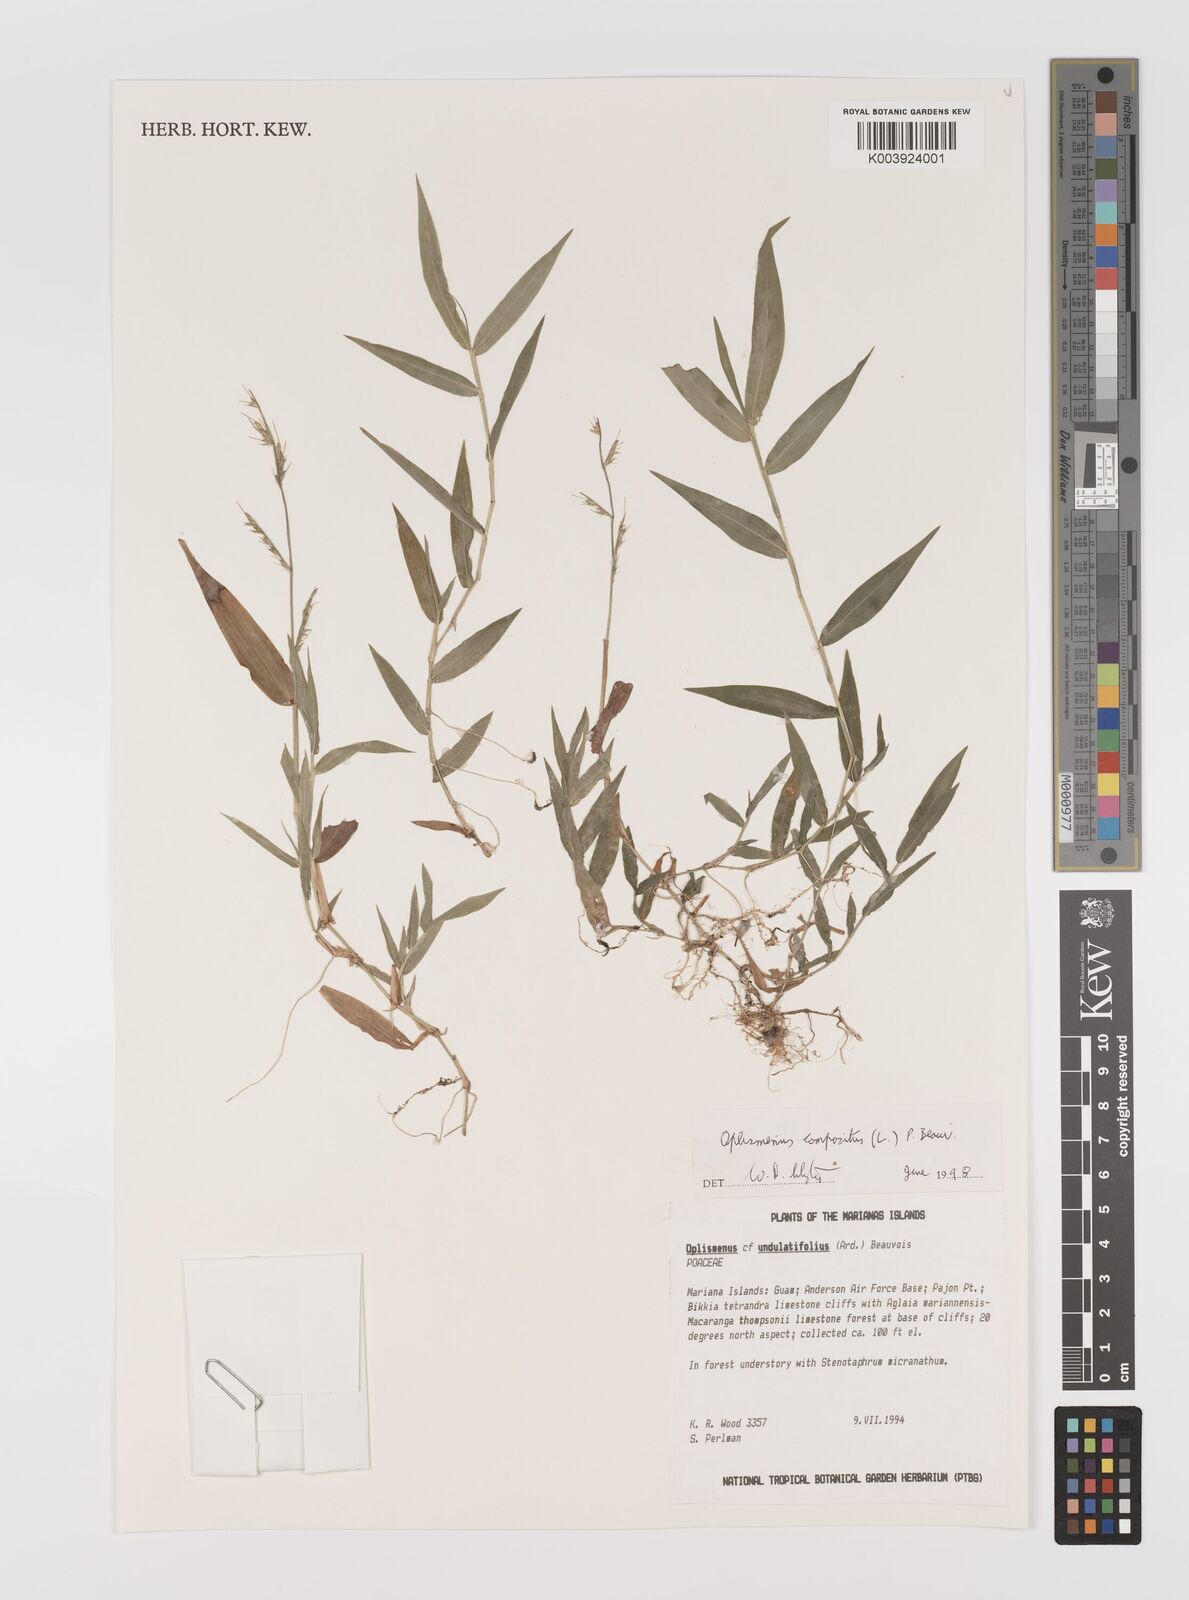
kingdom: Plantae
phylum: Tracheophyta
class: Liliopsida
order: Poales
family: Poaceae
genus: Oplismenus
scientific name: Oplismenus compositus
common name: Running mountain grass
